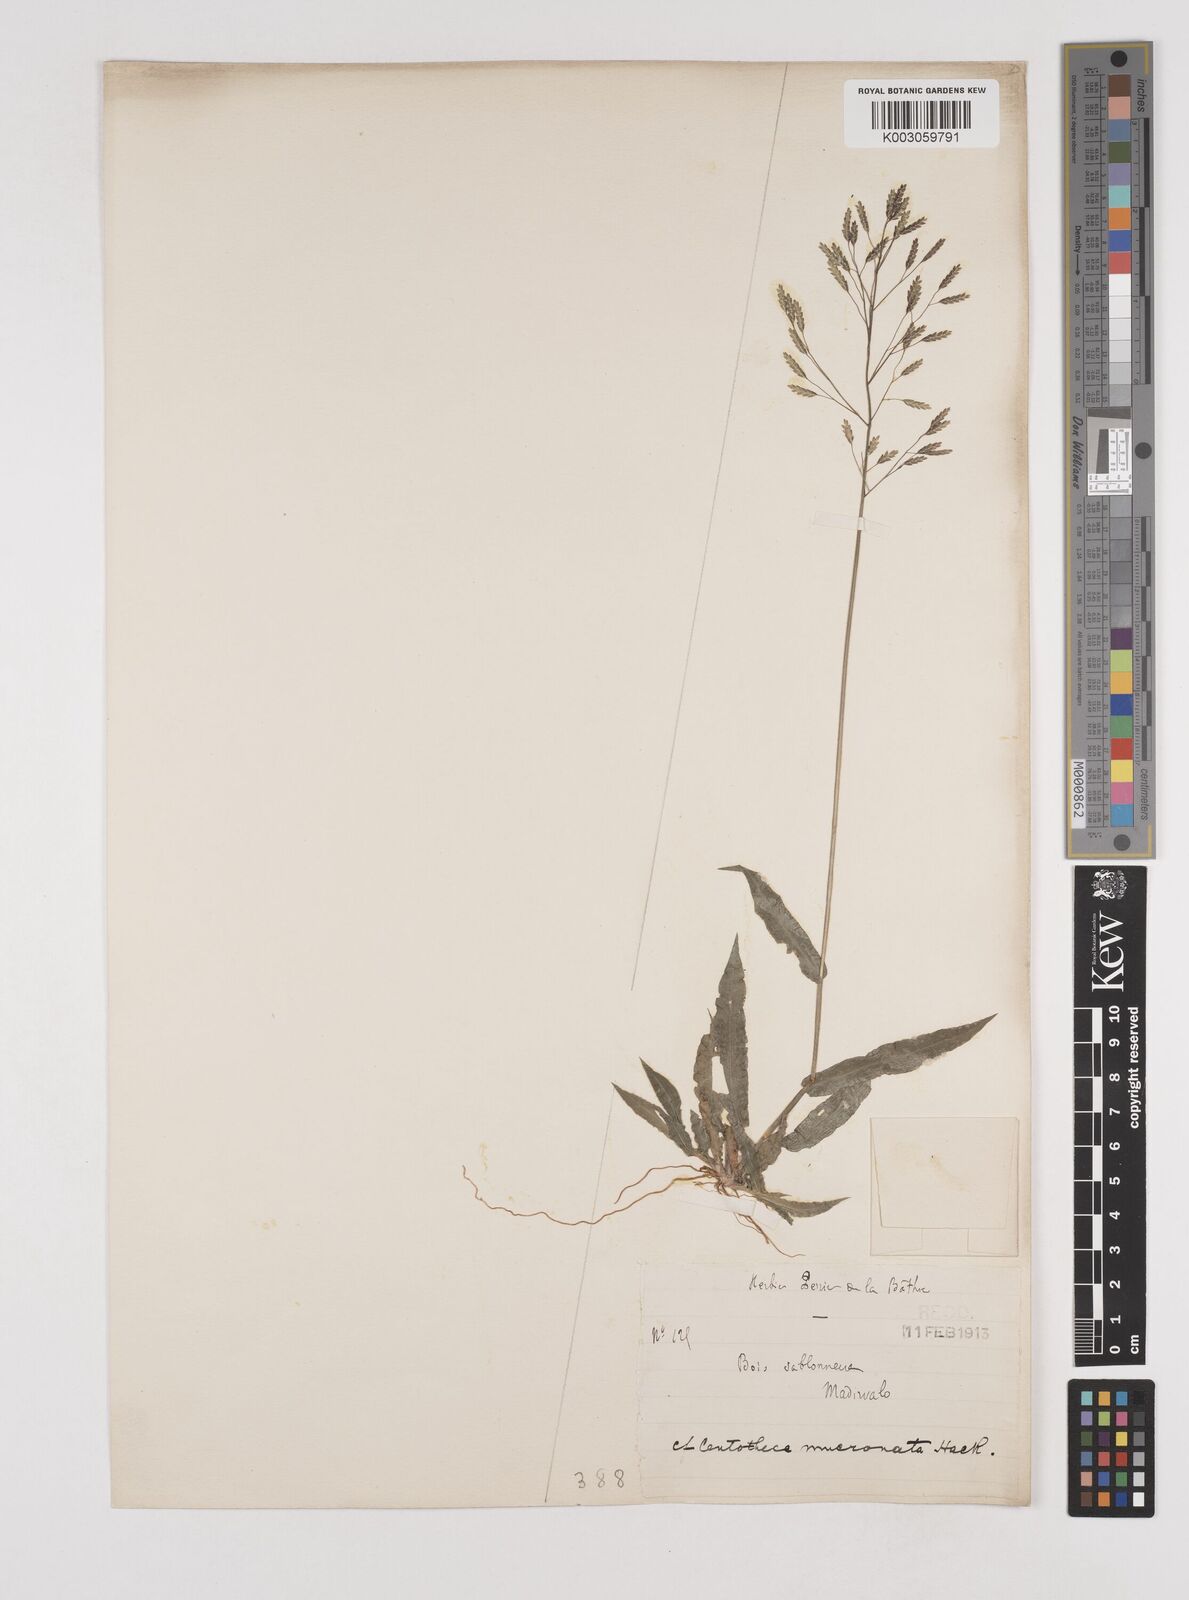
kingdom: Plantae
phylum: Tracheophyta
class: Liliopsida
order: Poales
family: Poaceae
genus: Megastachya
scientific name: Megastachya mucronata
